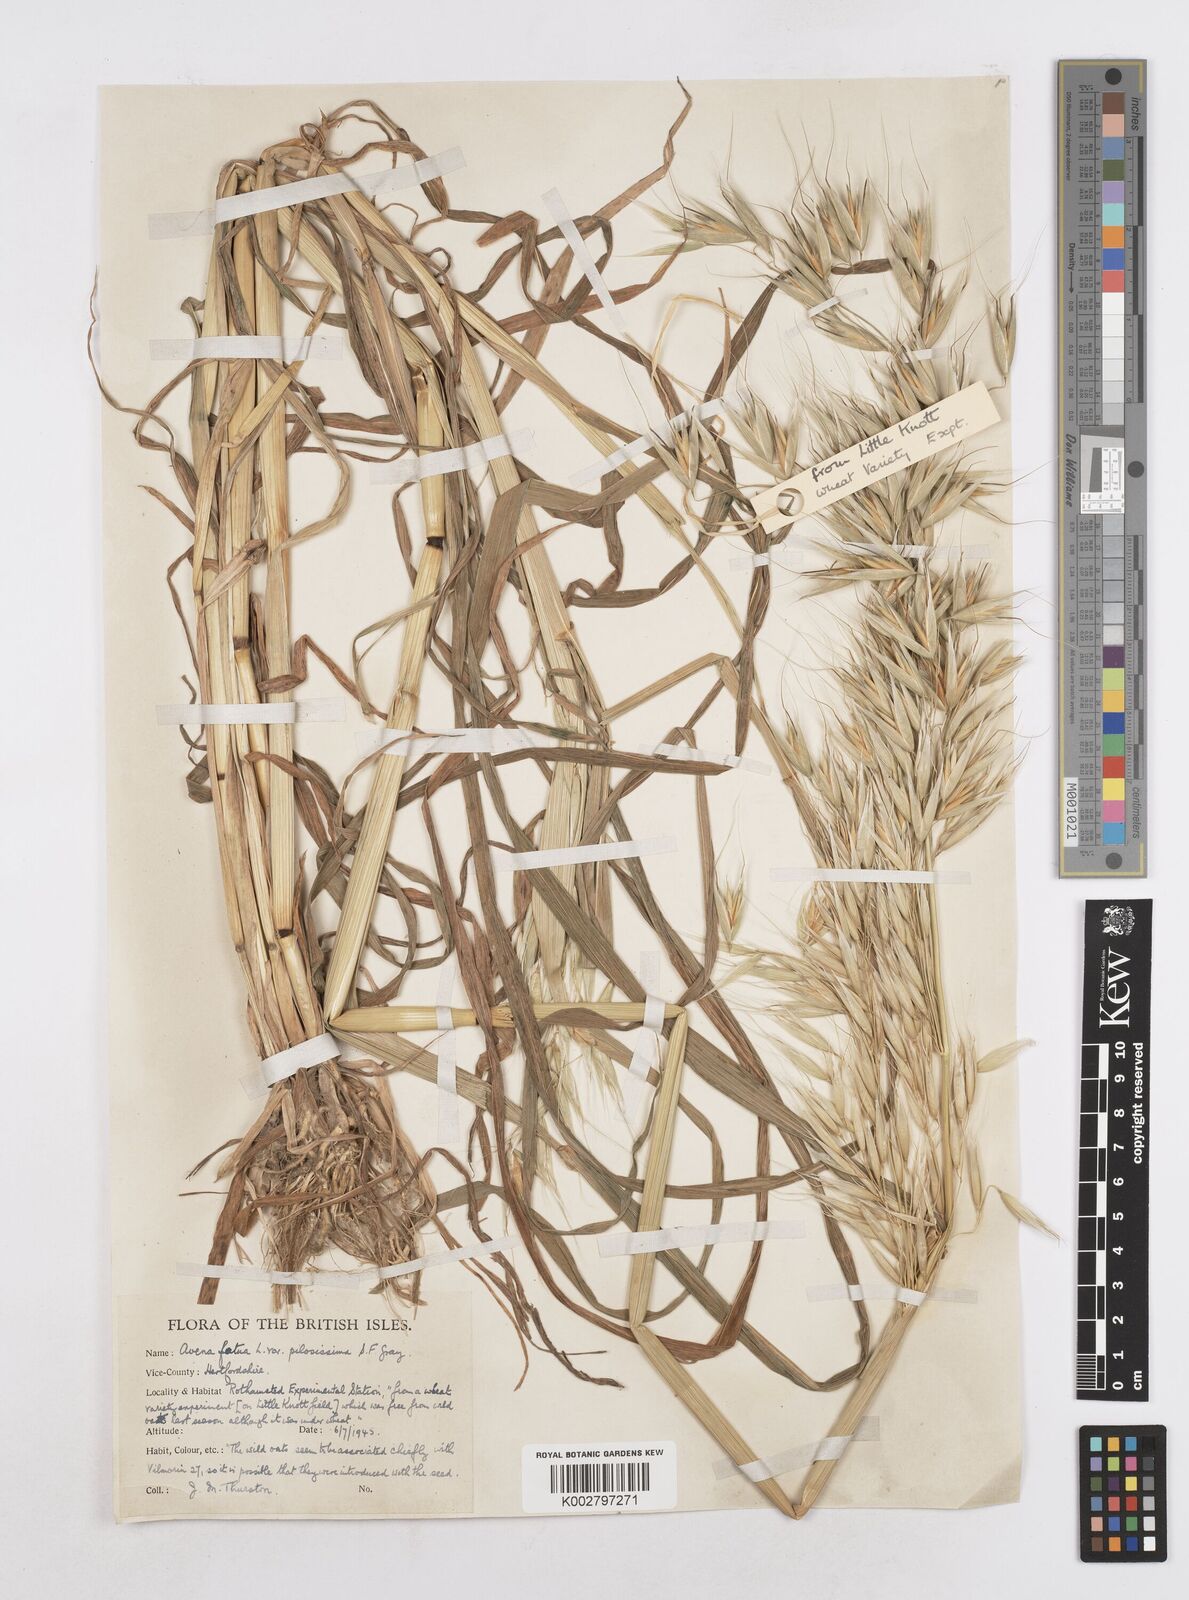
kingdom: Plantae
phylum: Tracheophyta
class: Liliopsida
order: Poales
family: Poaceae
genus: Avena
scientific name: Avena fatua
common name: Wild oat
